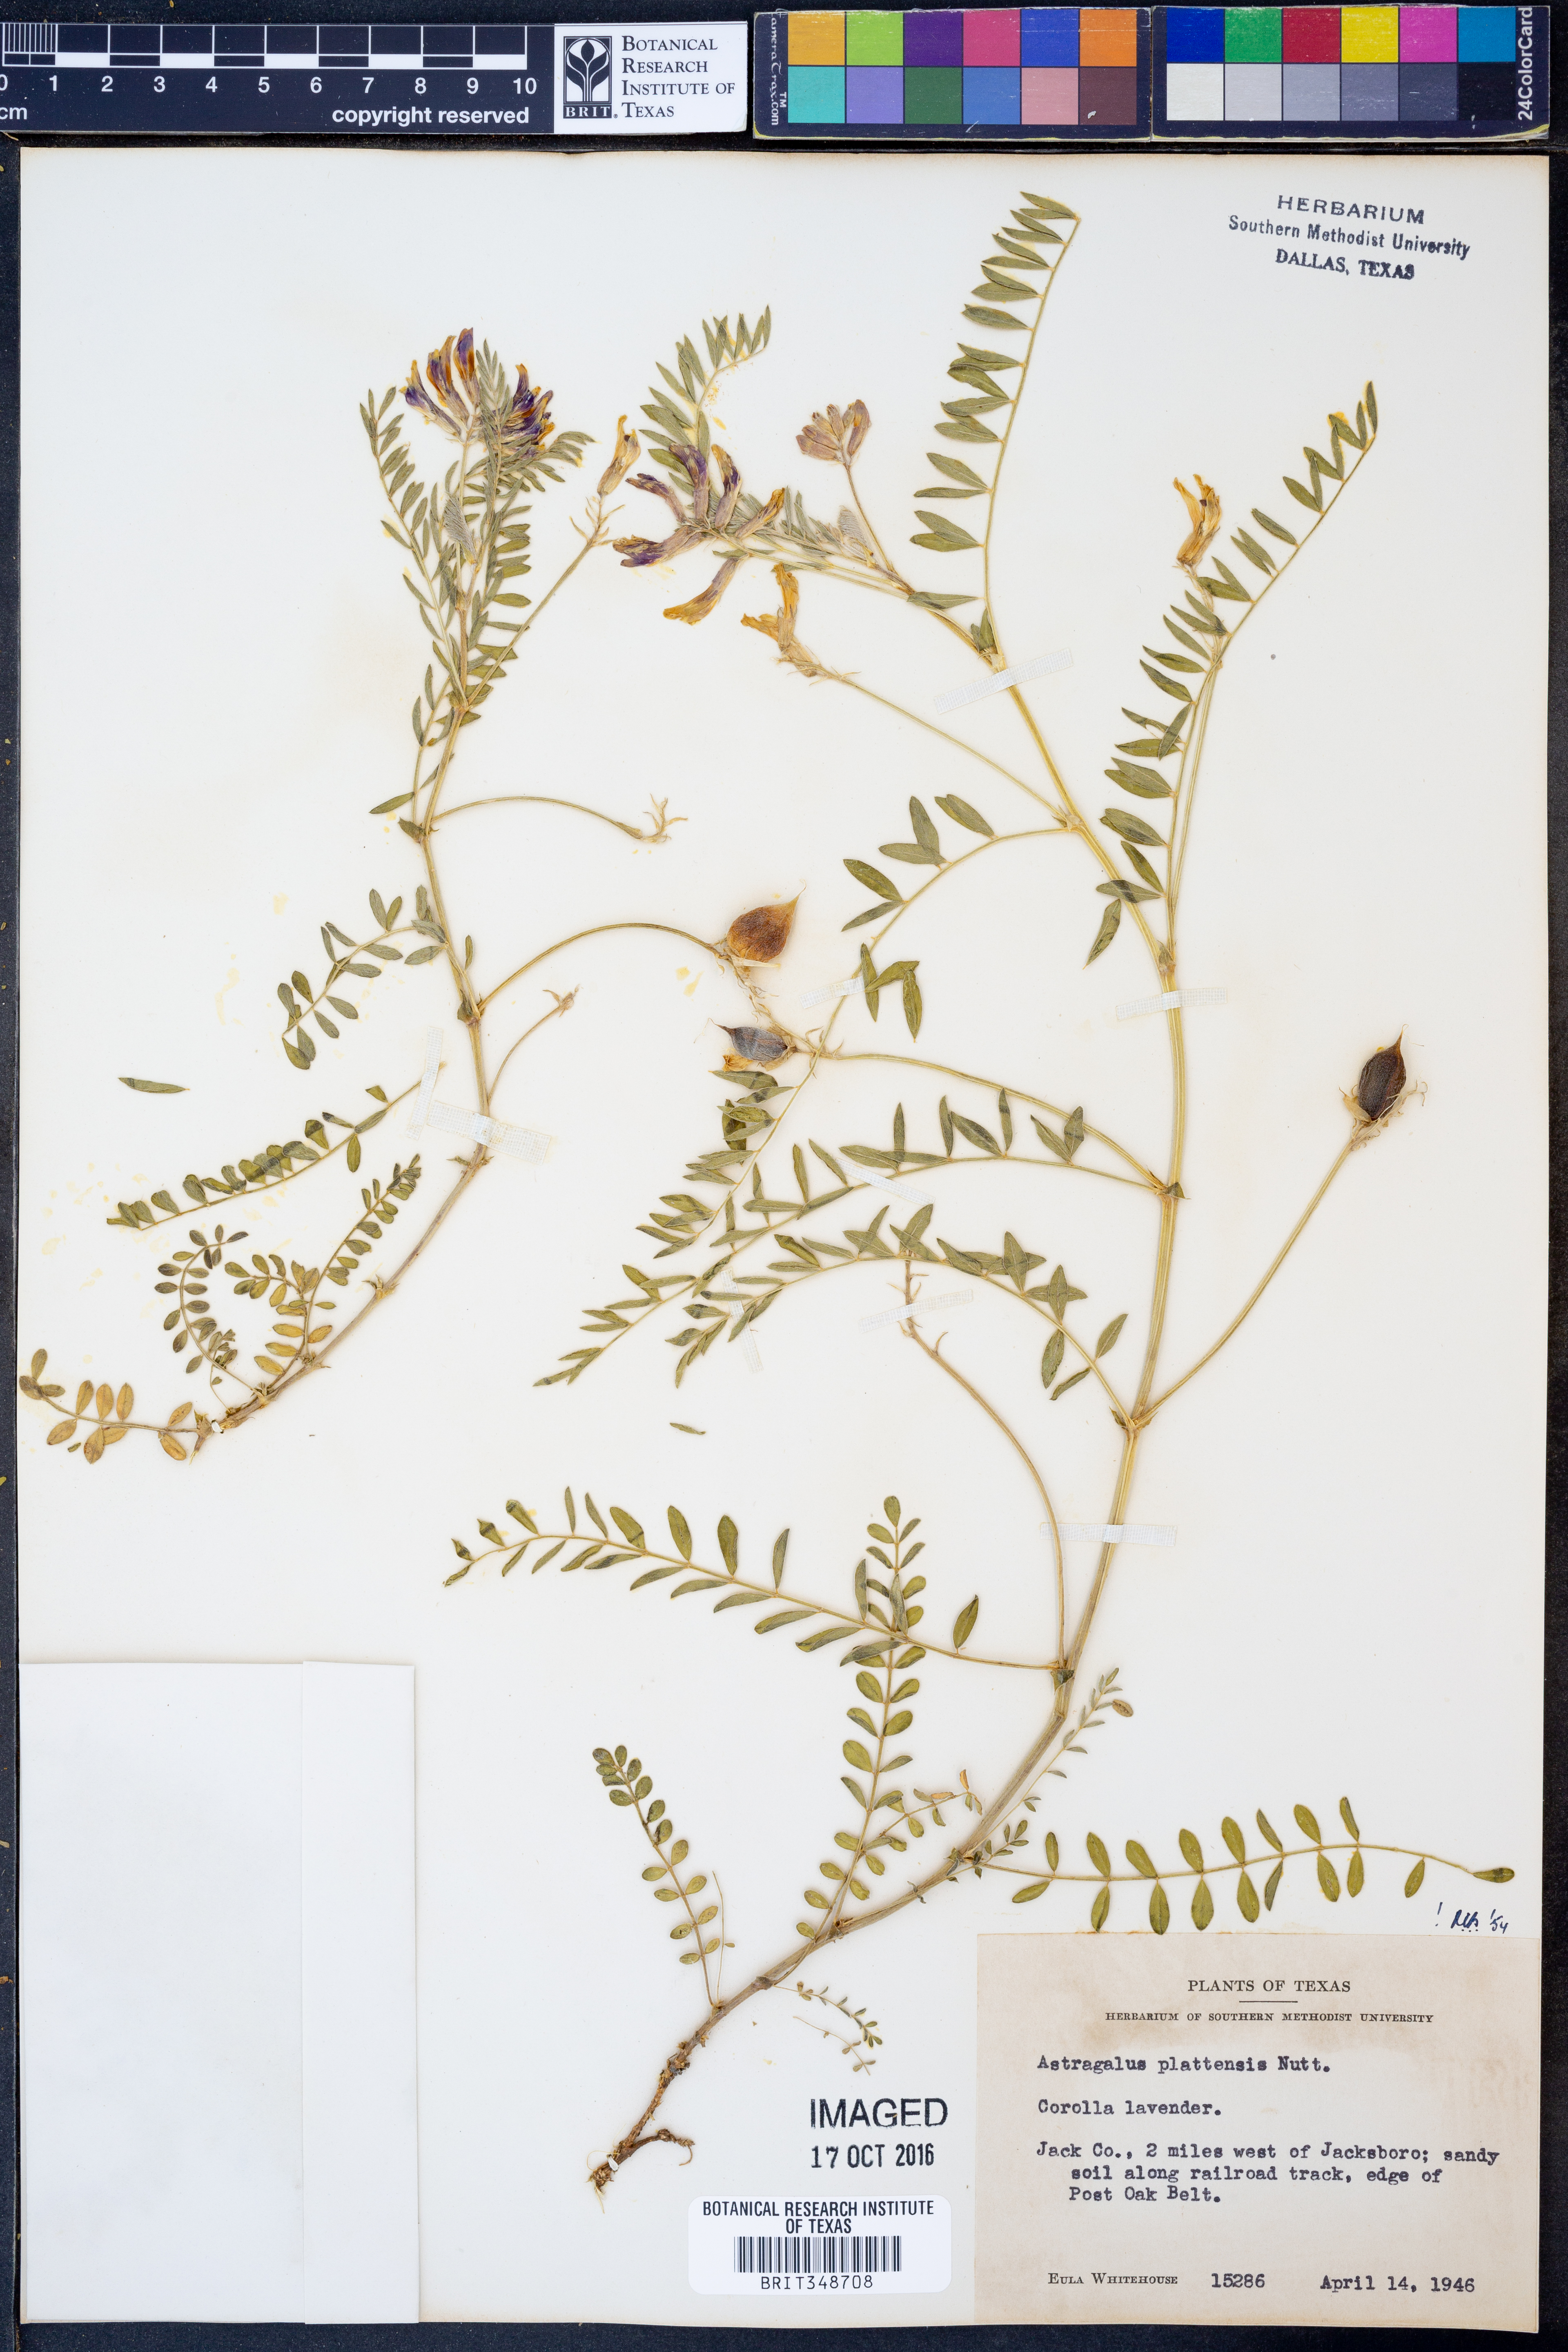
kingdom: Plantae
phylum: Tracheophyta
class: Magnoliopsida
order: Fabales
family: Fabaceae
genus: Astragalus
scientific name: Astragalus plattensis
